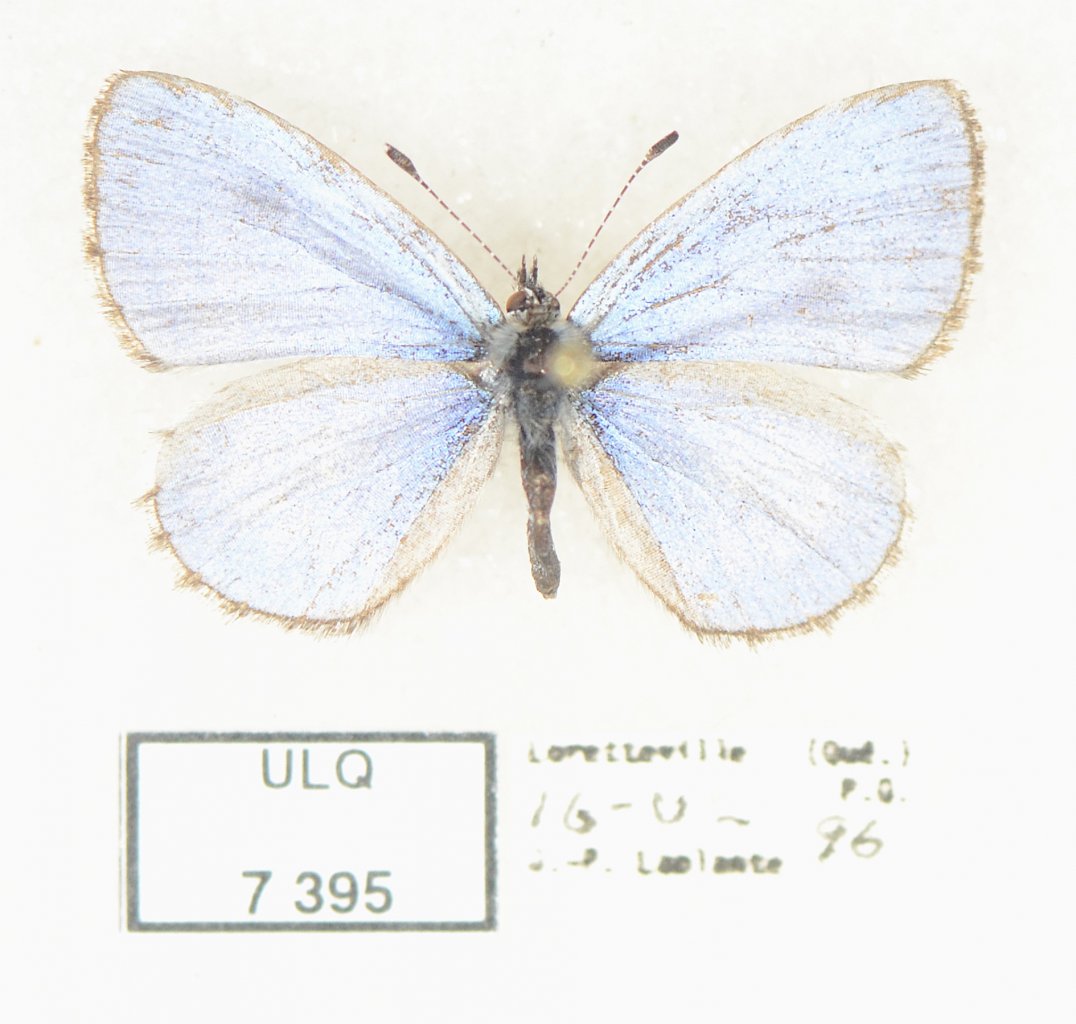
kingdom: Animalia
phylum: Arthropoda
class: Insecta
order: Lepidoptera
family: Lycaenidae
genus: Celastrina
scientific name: Celastrina lucia
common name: Northern Spring Azure
